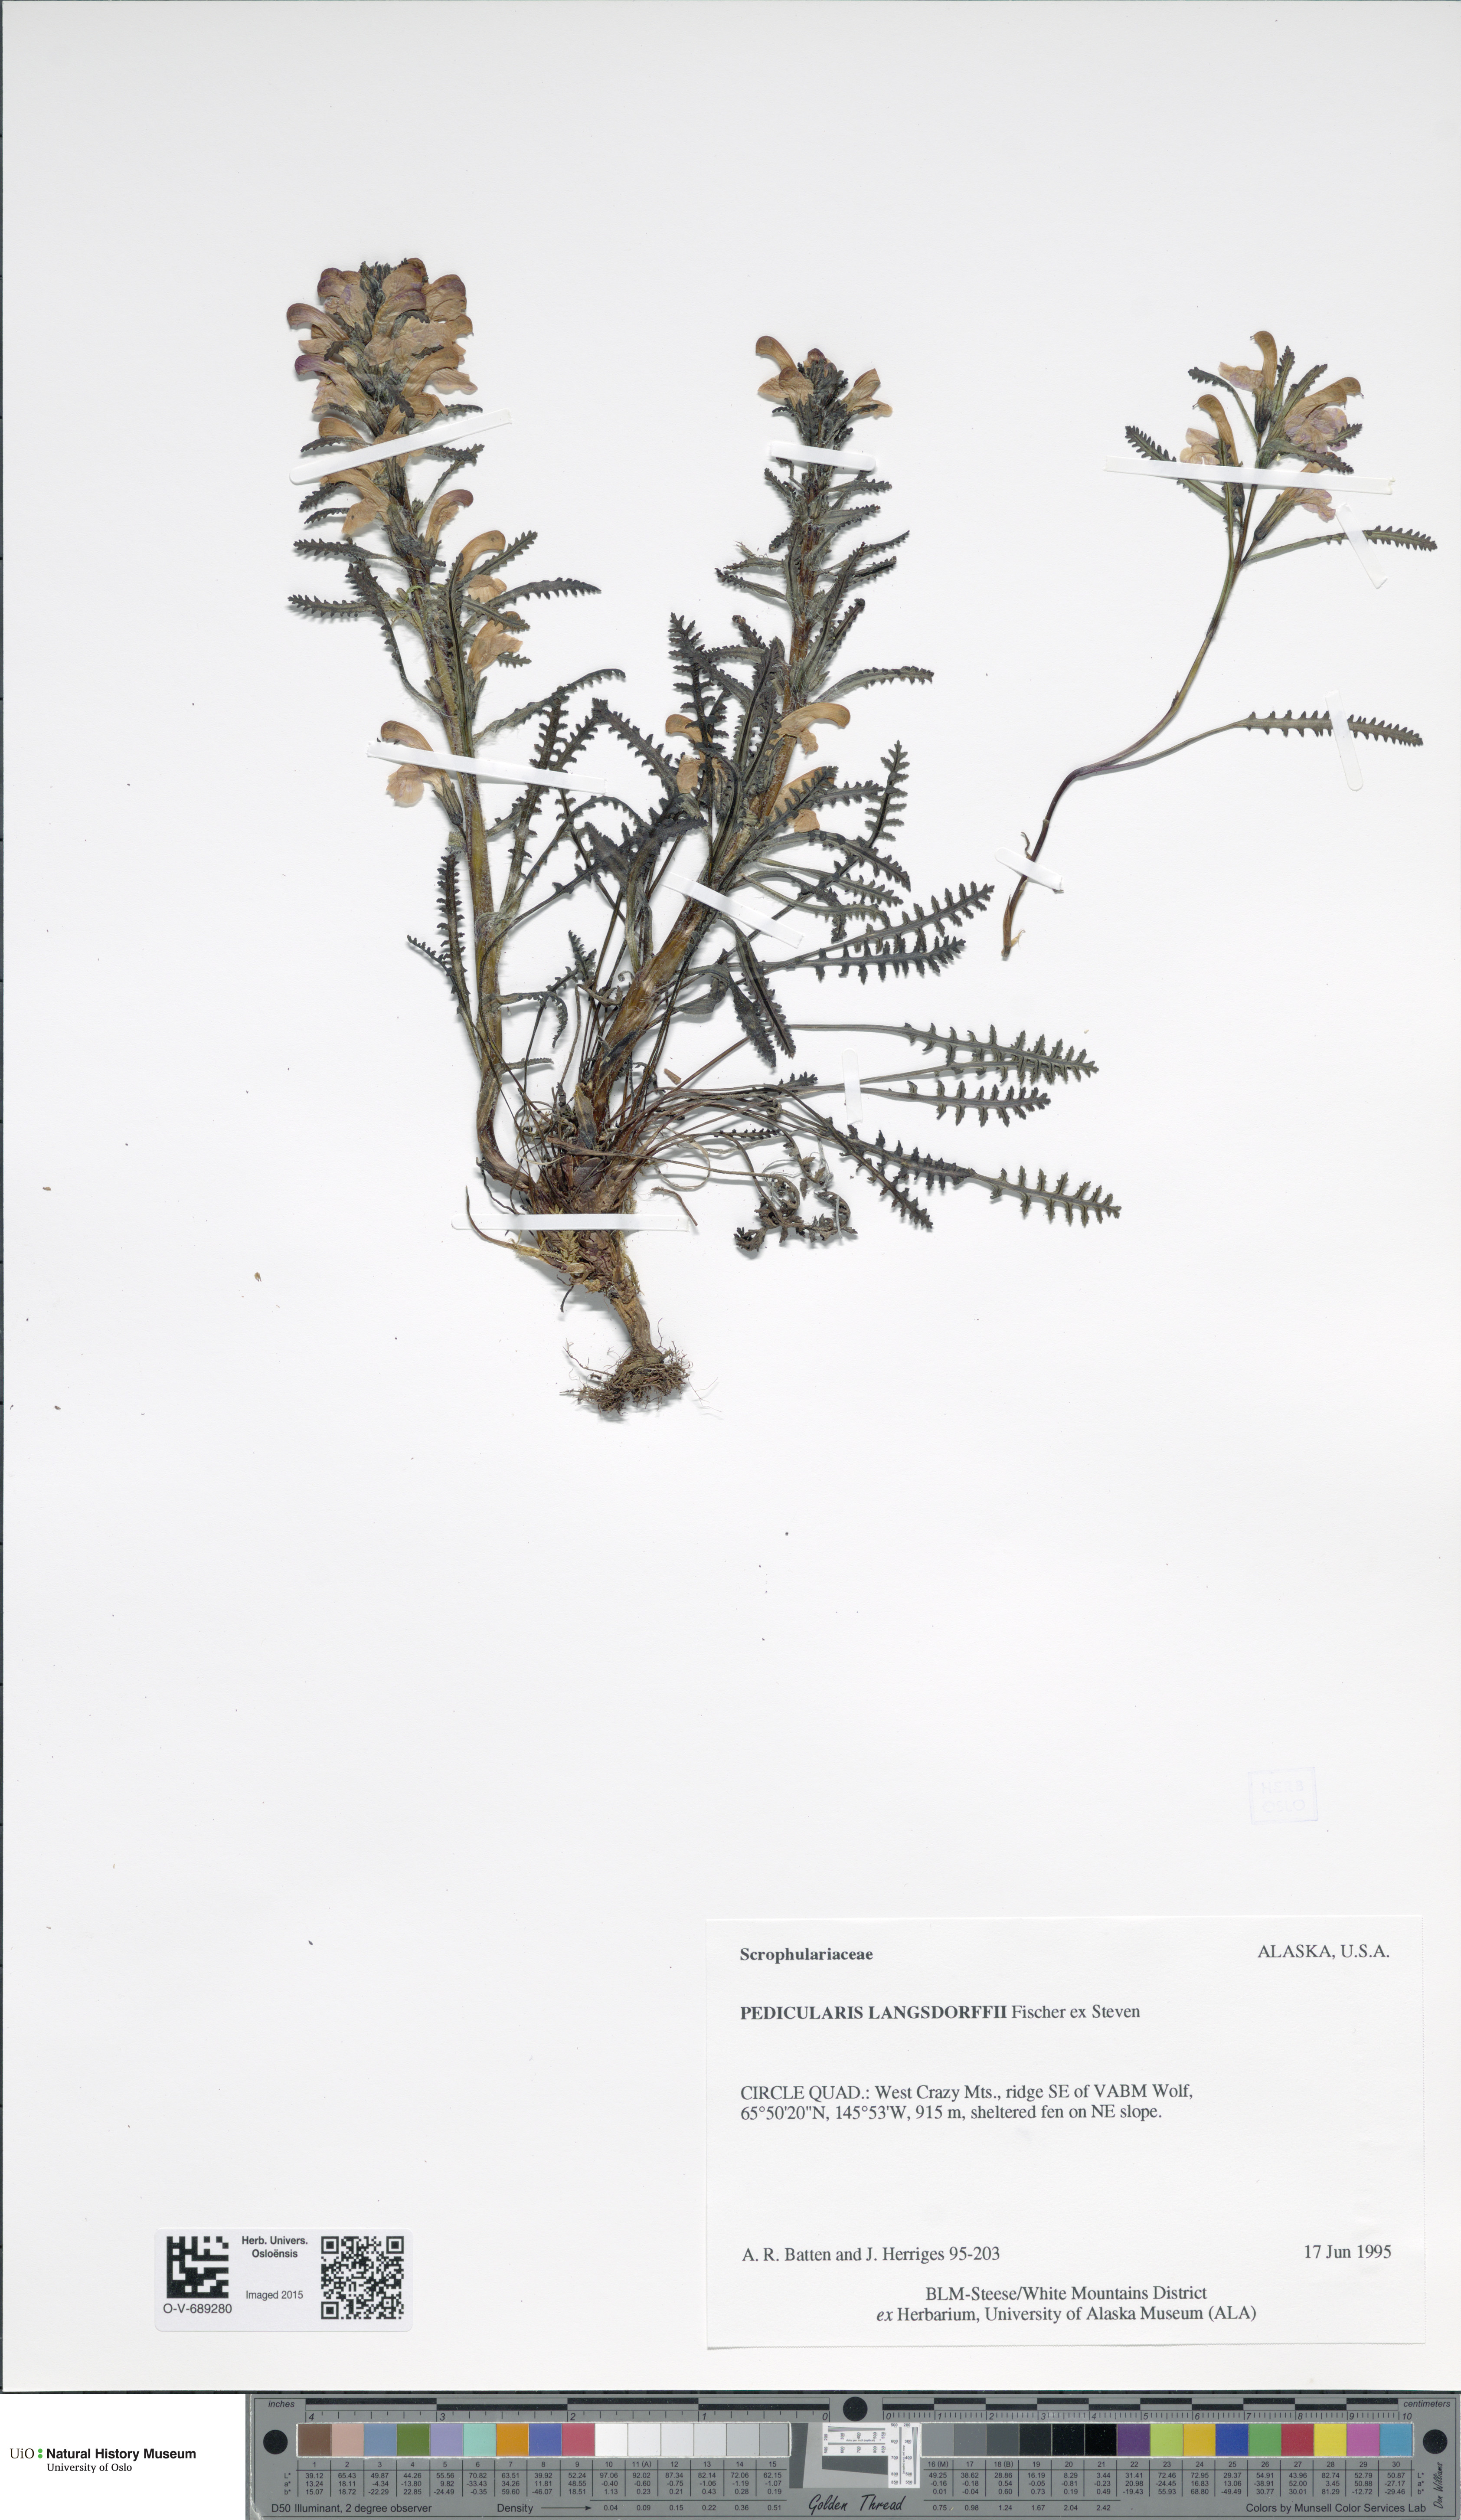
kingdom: Plantae
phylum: Tracheophyta
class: Magnoliopsida
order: Lamiales
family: Orobanchaceae
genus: Pedicularis
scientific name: Pedicularis langsdorffii
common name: Langsdorff's lousewort
